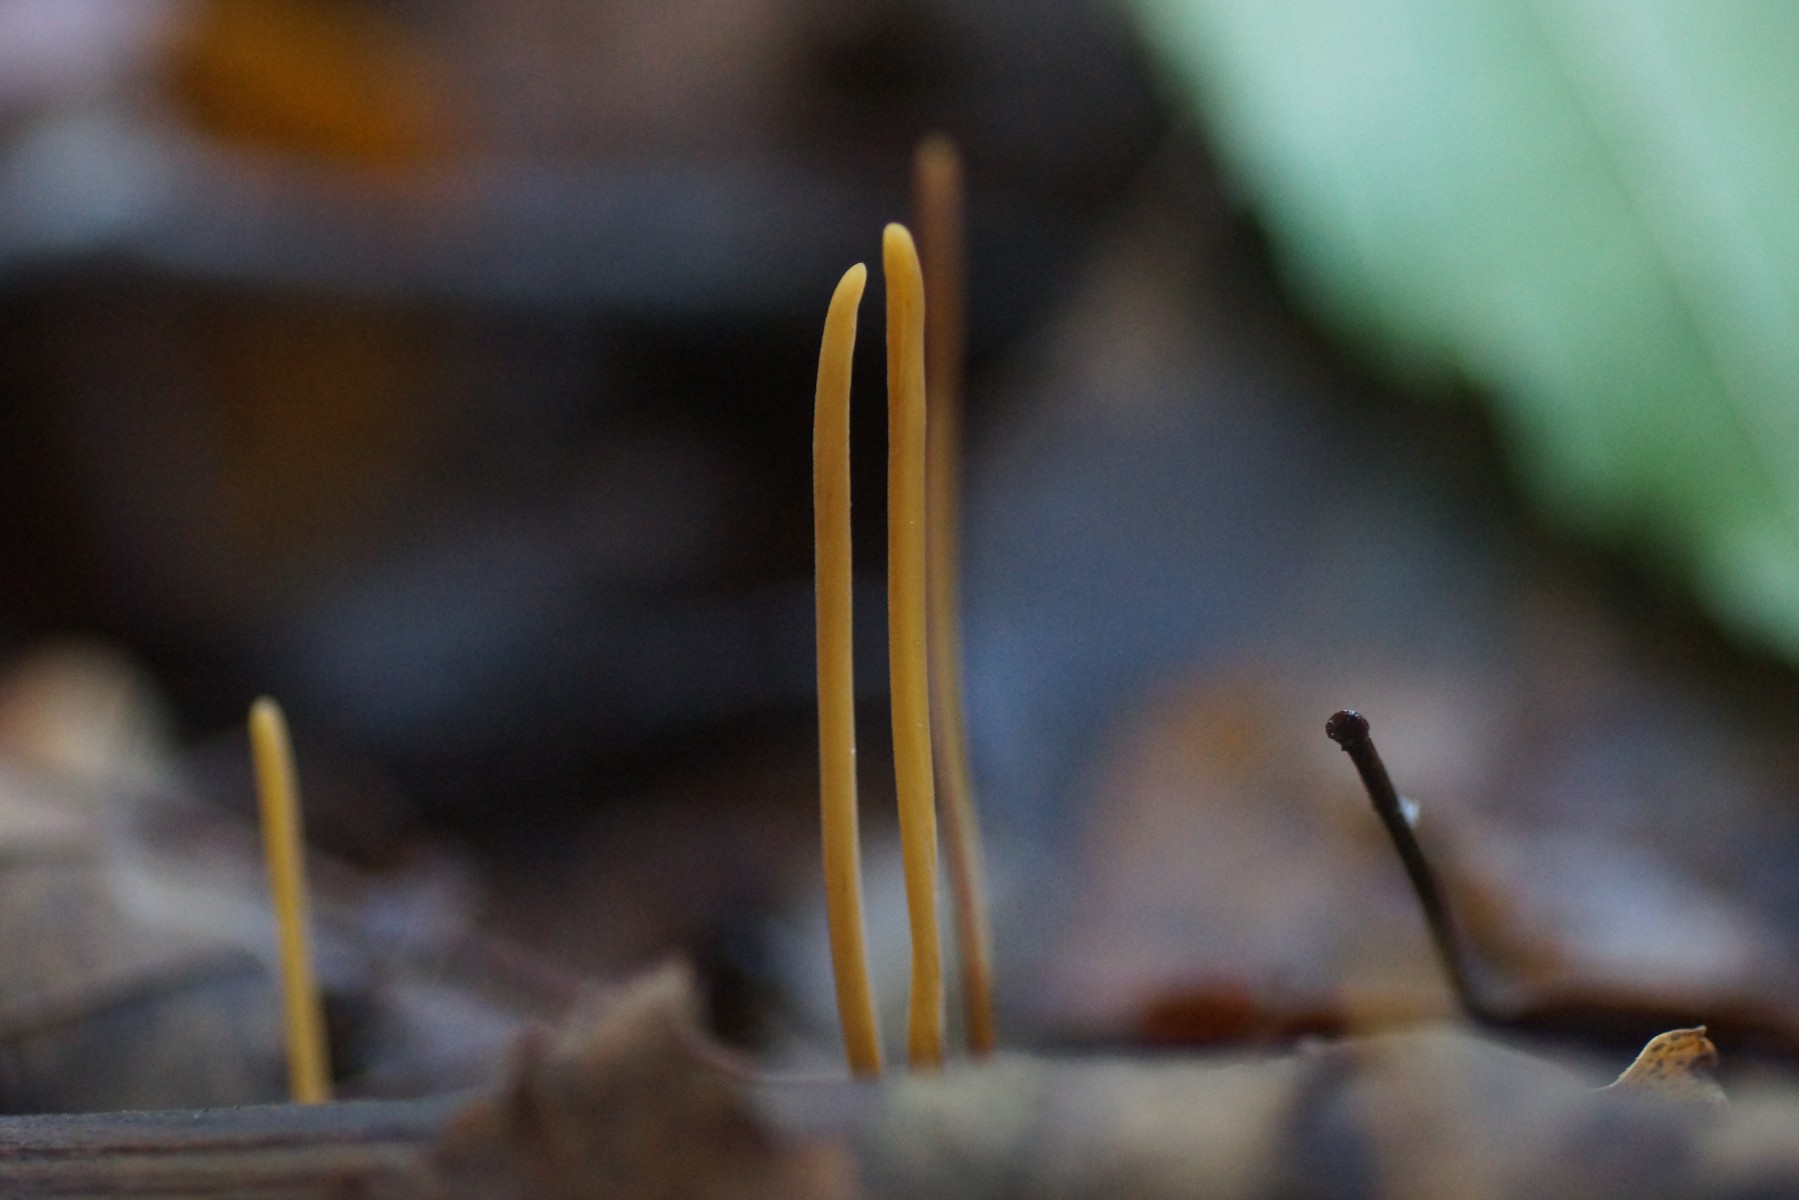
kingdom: Fungi
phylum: Basidiomycota
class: Agaricomycetes
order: Agaricales
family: Typhulaceae
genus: Typhula
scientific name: Typhula juncea
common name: trådagtig rørkølle
